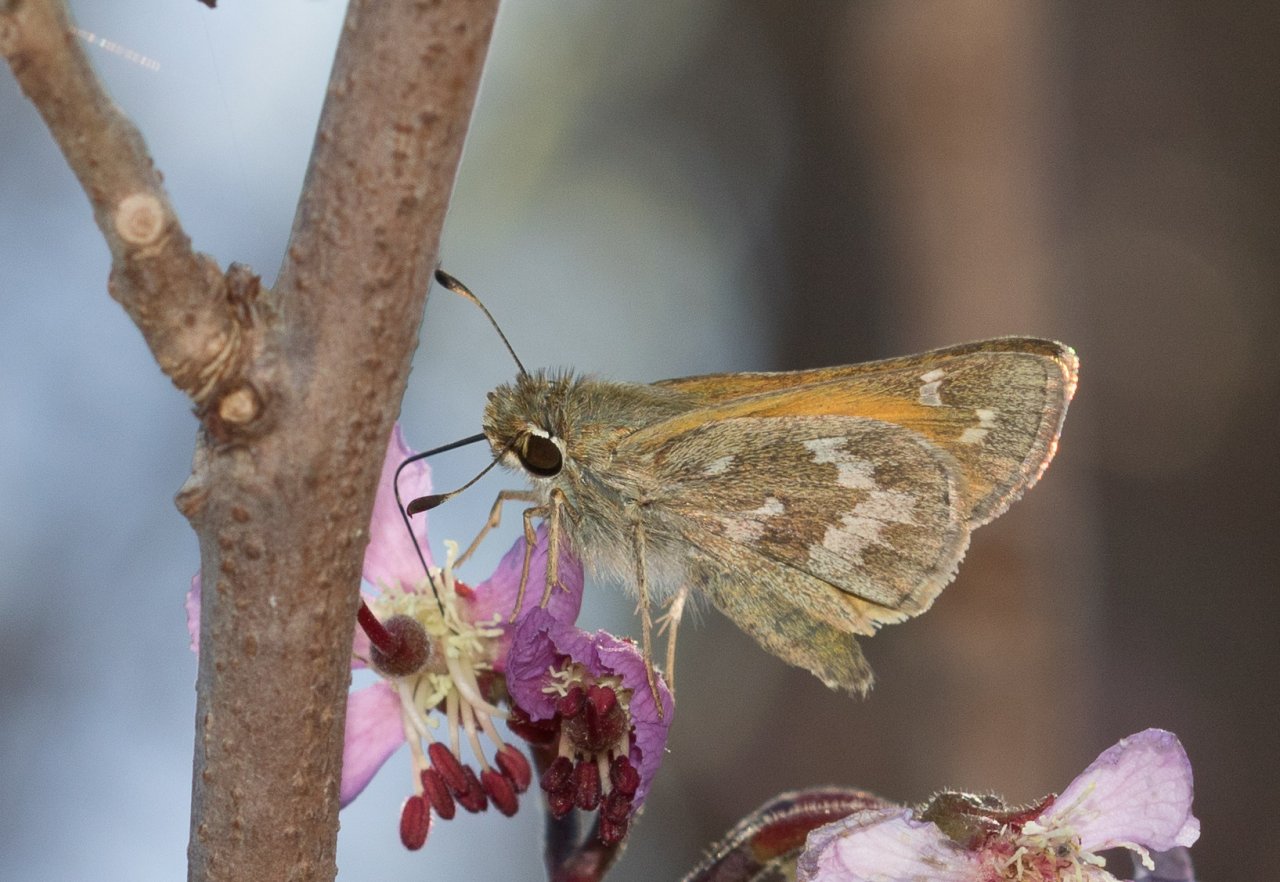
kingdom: Animalia
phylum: Arthropoda
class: Insecta
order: Lepidoptera
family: Hesperiidae
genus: Atalopedes
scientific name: Atalopedes campestris
